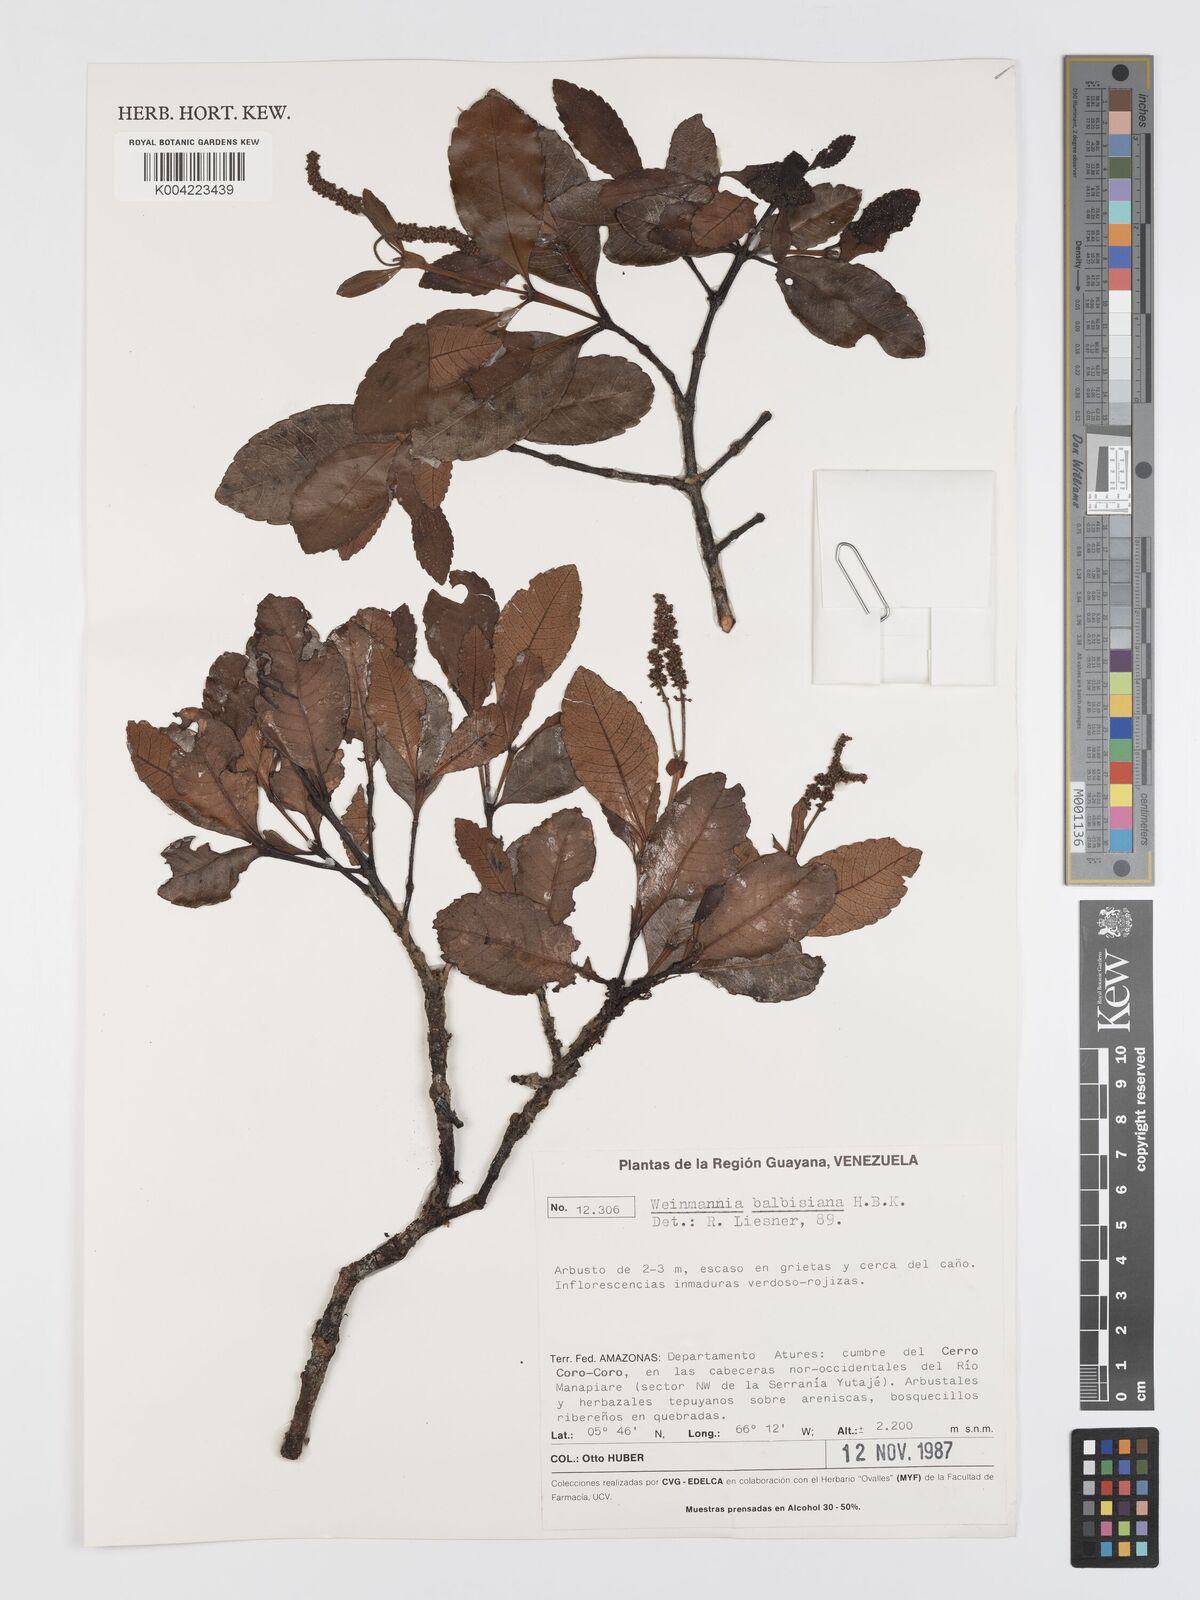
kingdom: Plantae
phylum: Tracheophyta
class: Magnoliopsida
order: Oxalidales
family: Cunoniaceae
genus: Weinmannia
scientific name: Weinmannia balbisana
